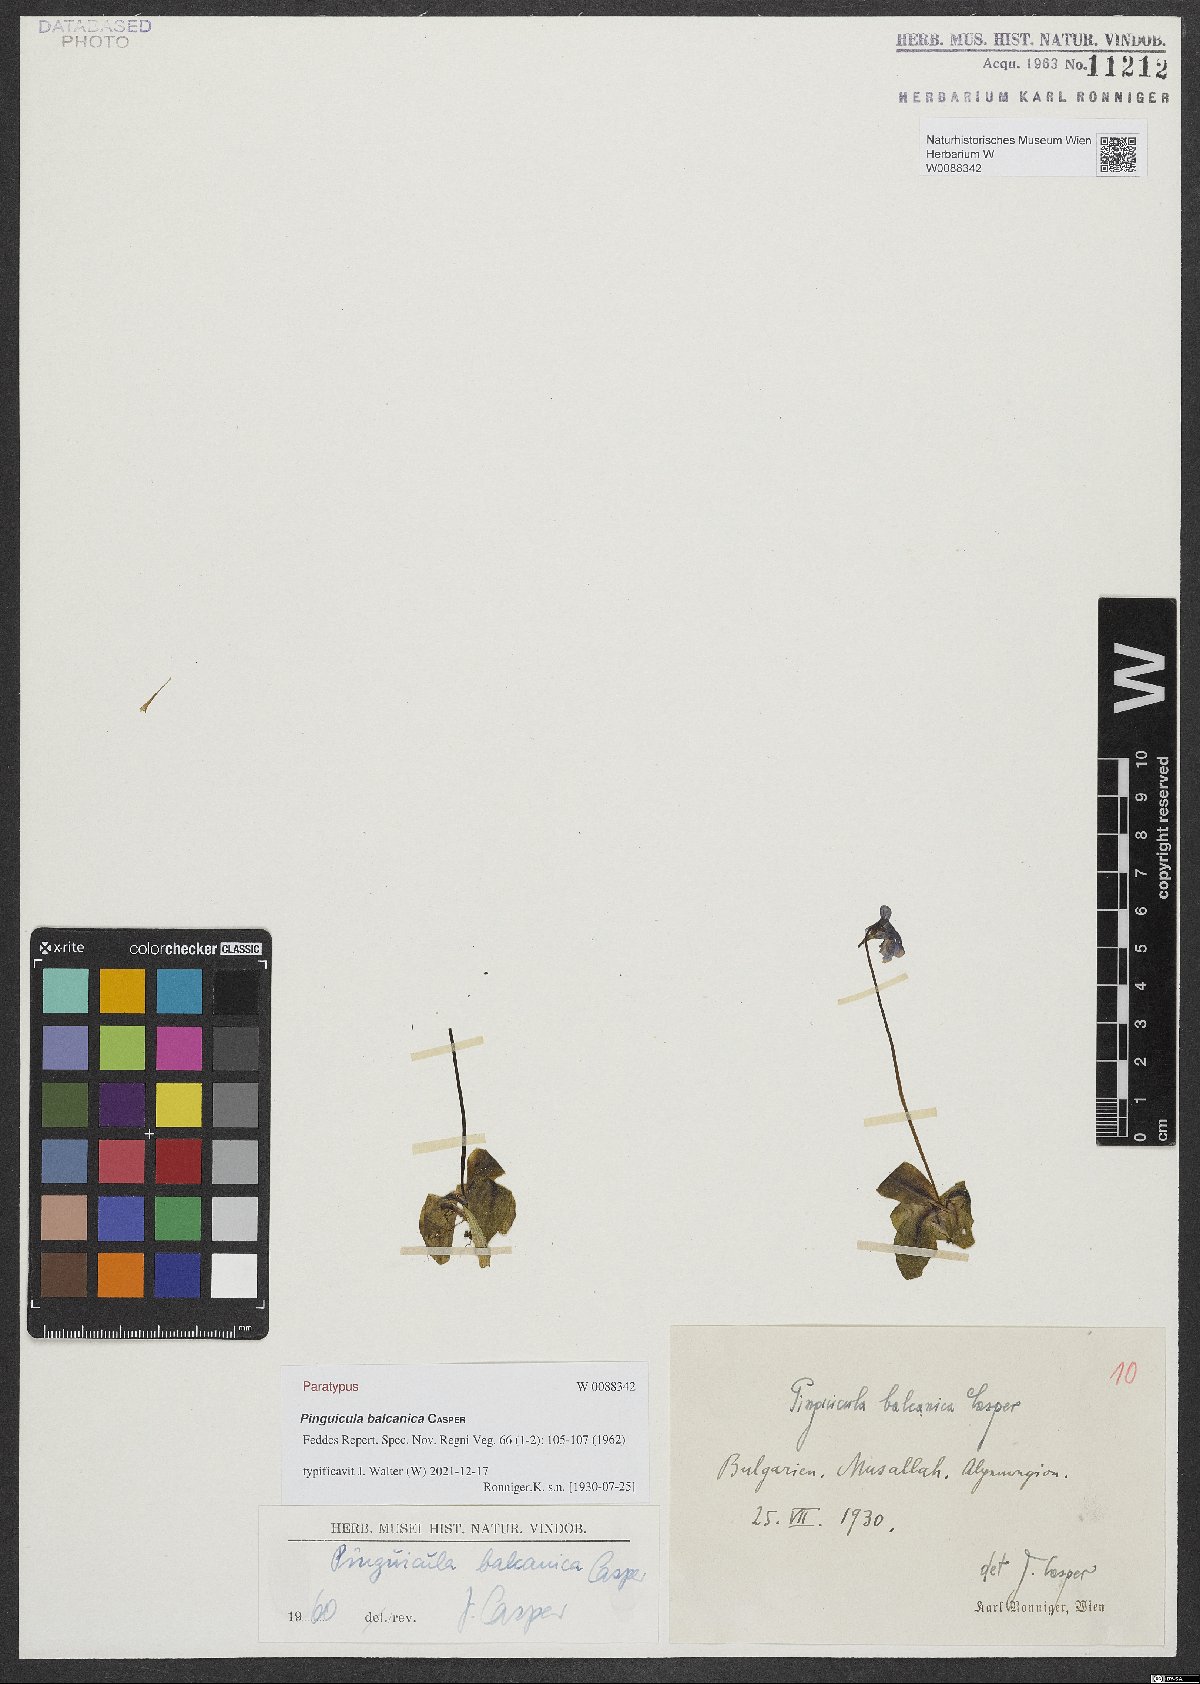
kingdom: Plantae
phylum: Tracheophyta
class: Magnoliopsida
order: Lamiales
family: Lentibulariaceae
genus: Pinguicula
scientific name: Pinguicula balcanica
